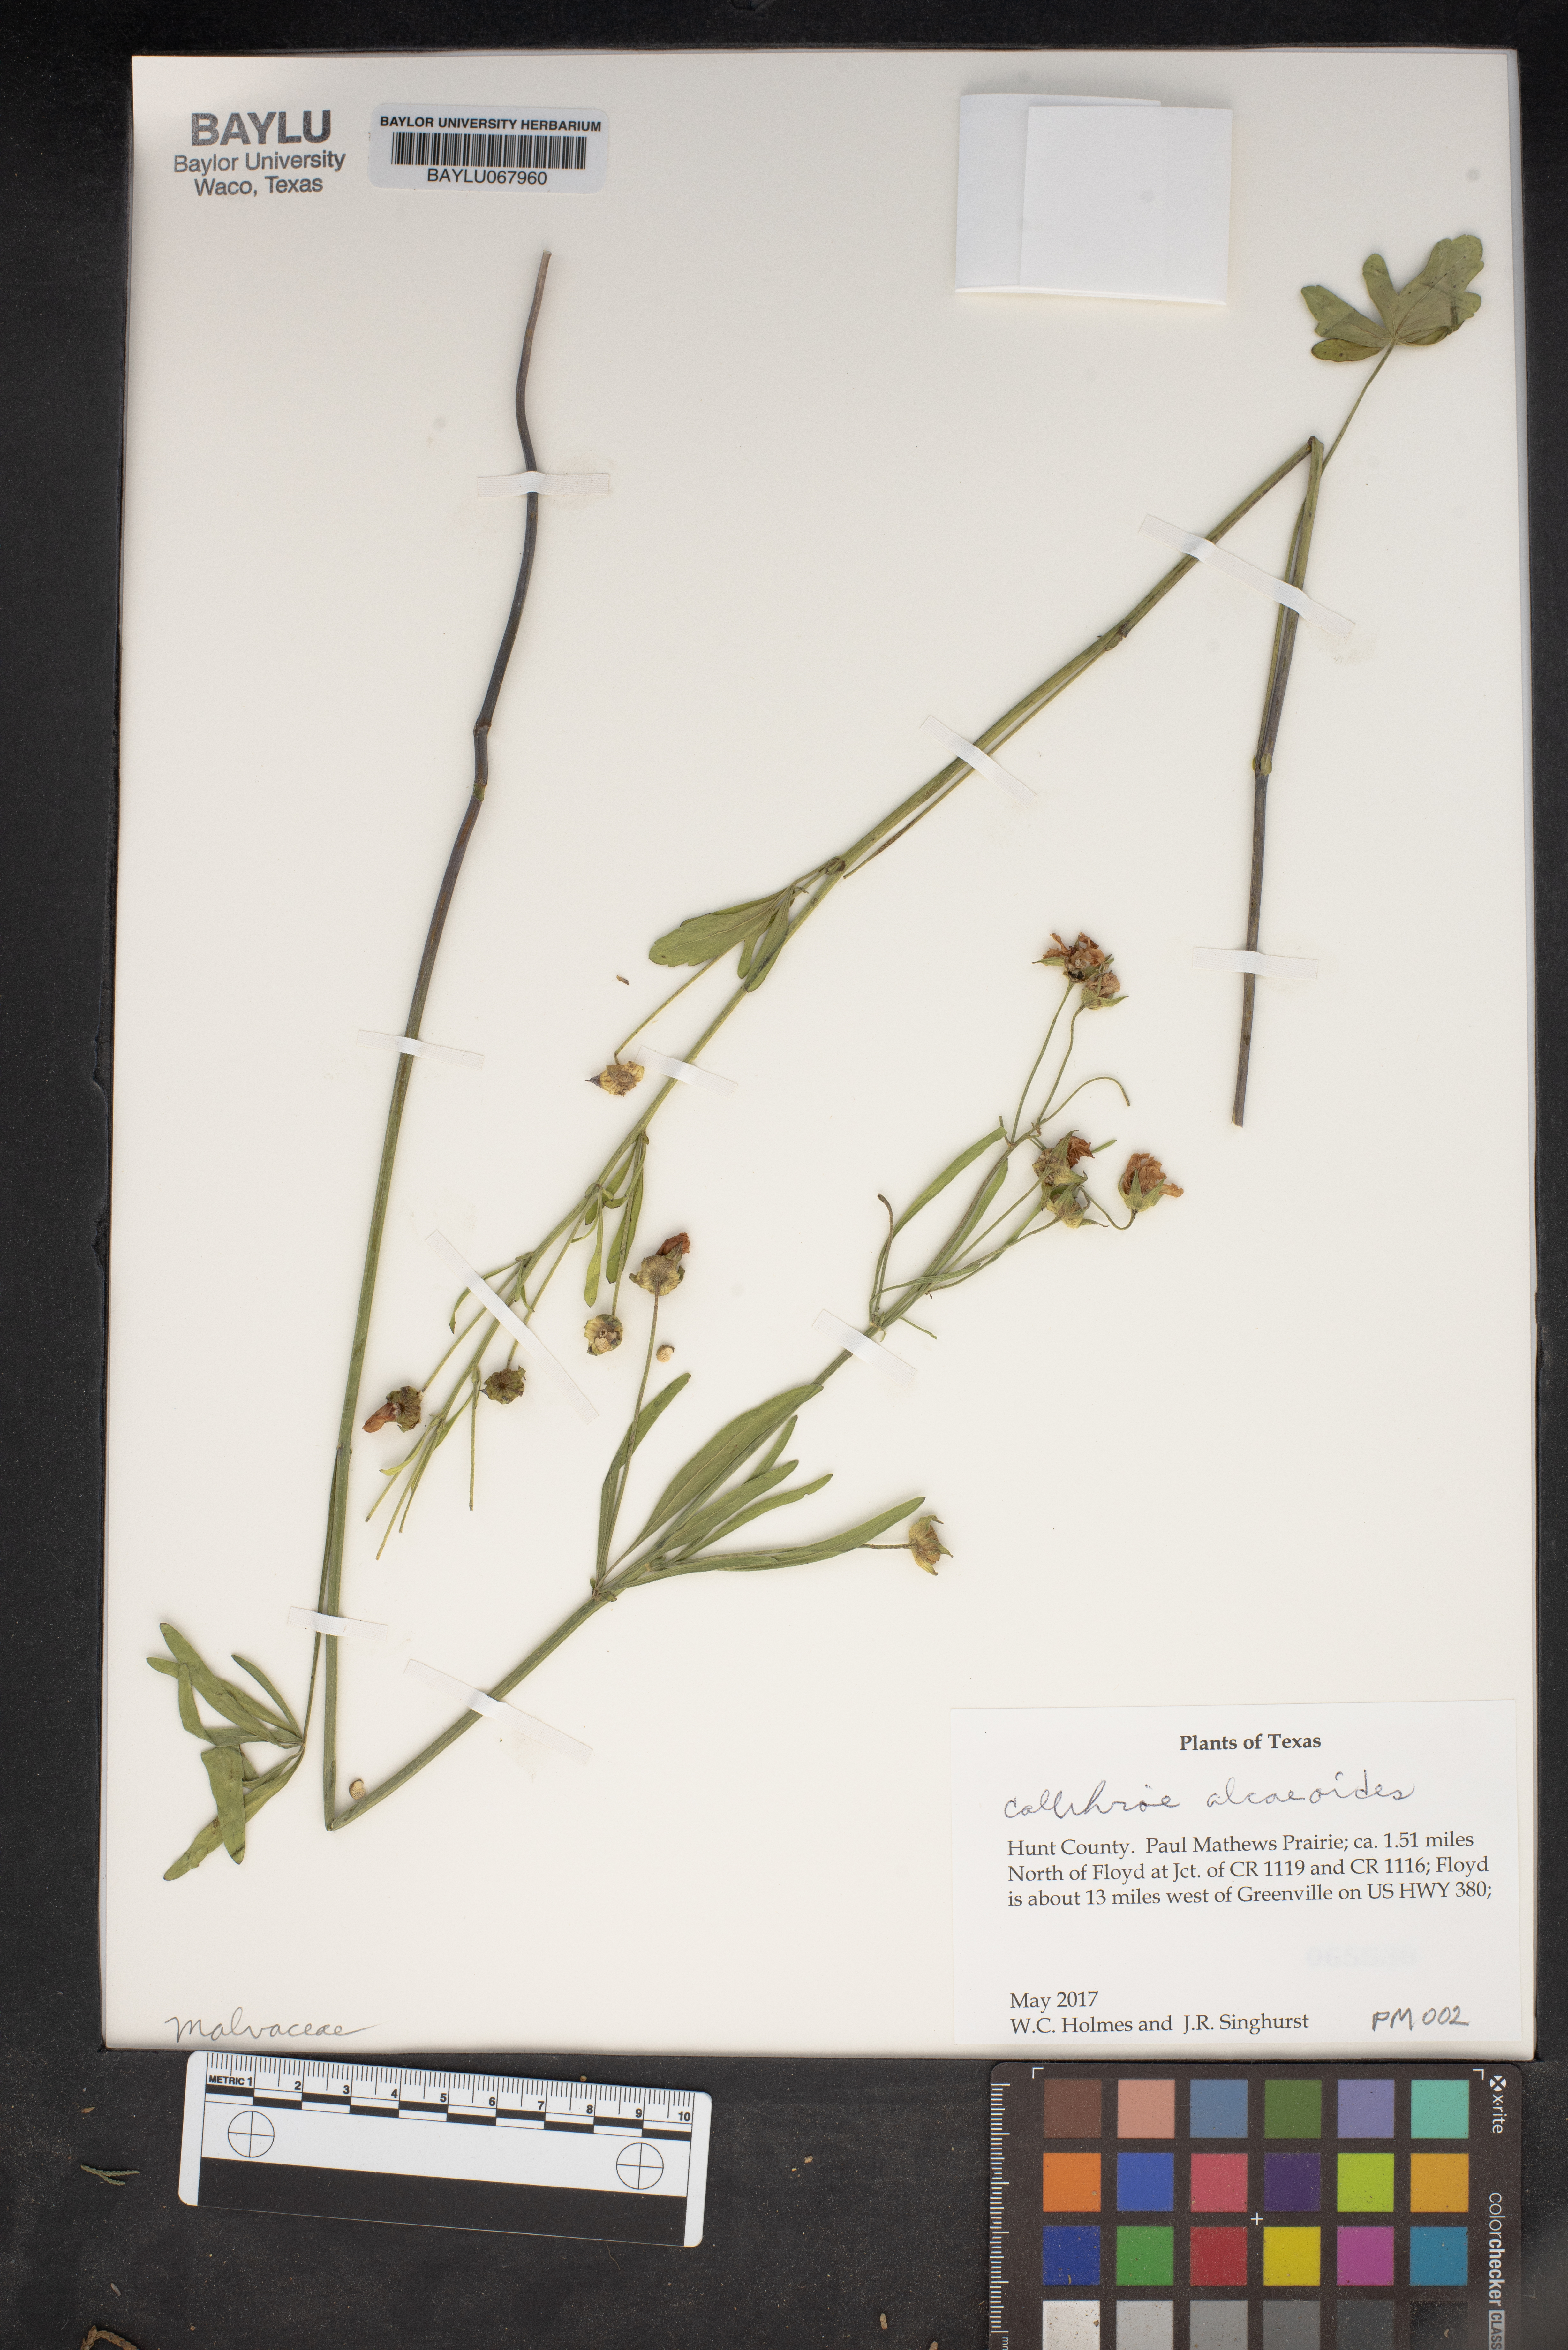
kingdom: Plantae
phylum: Tracheophyta
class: Magnoliopsida
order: Malvales
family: Malvaceae
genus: Callirhoe
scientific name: Callirhoe alcaeoides
